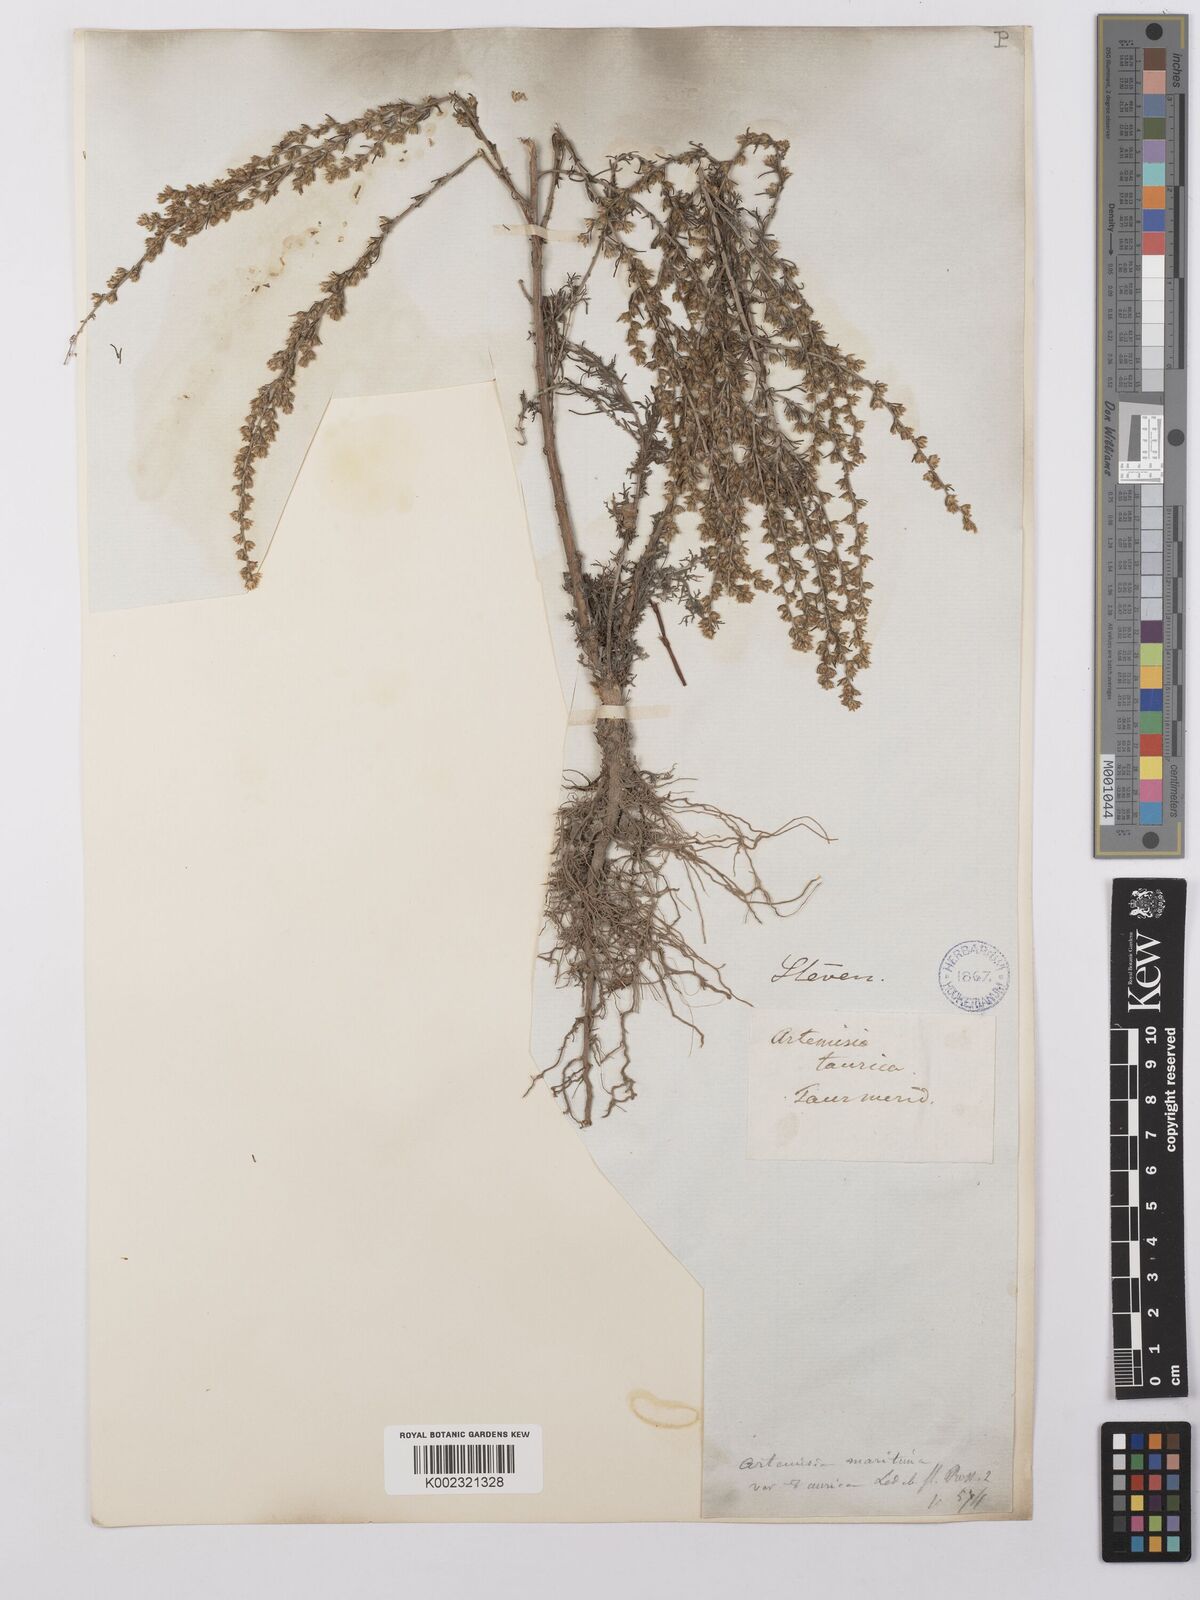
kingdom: Plantae
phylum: Tracheophyta
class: Magnoliopsida
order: Asterales
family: Asteraceae
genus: Artemisia
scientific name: Artemisia taurica
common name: Tauric wormwood
